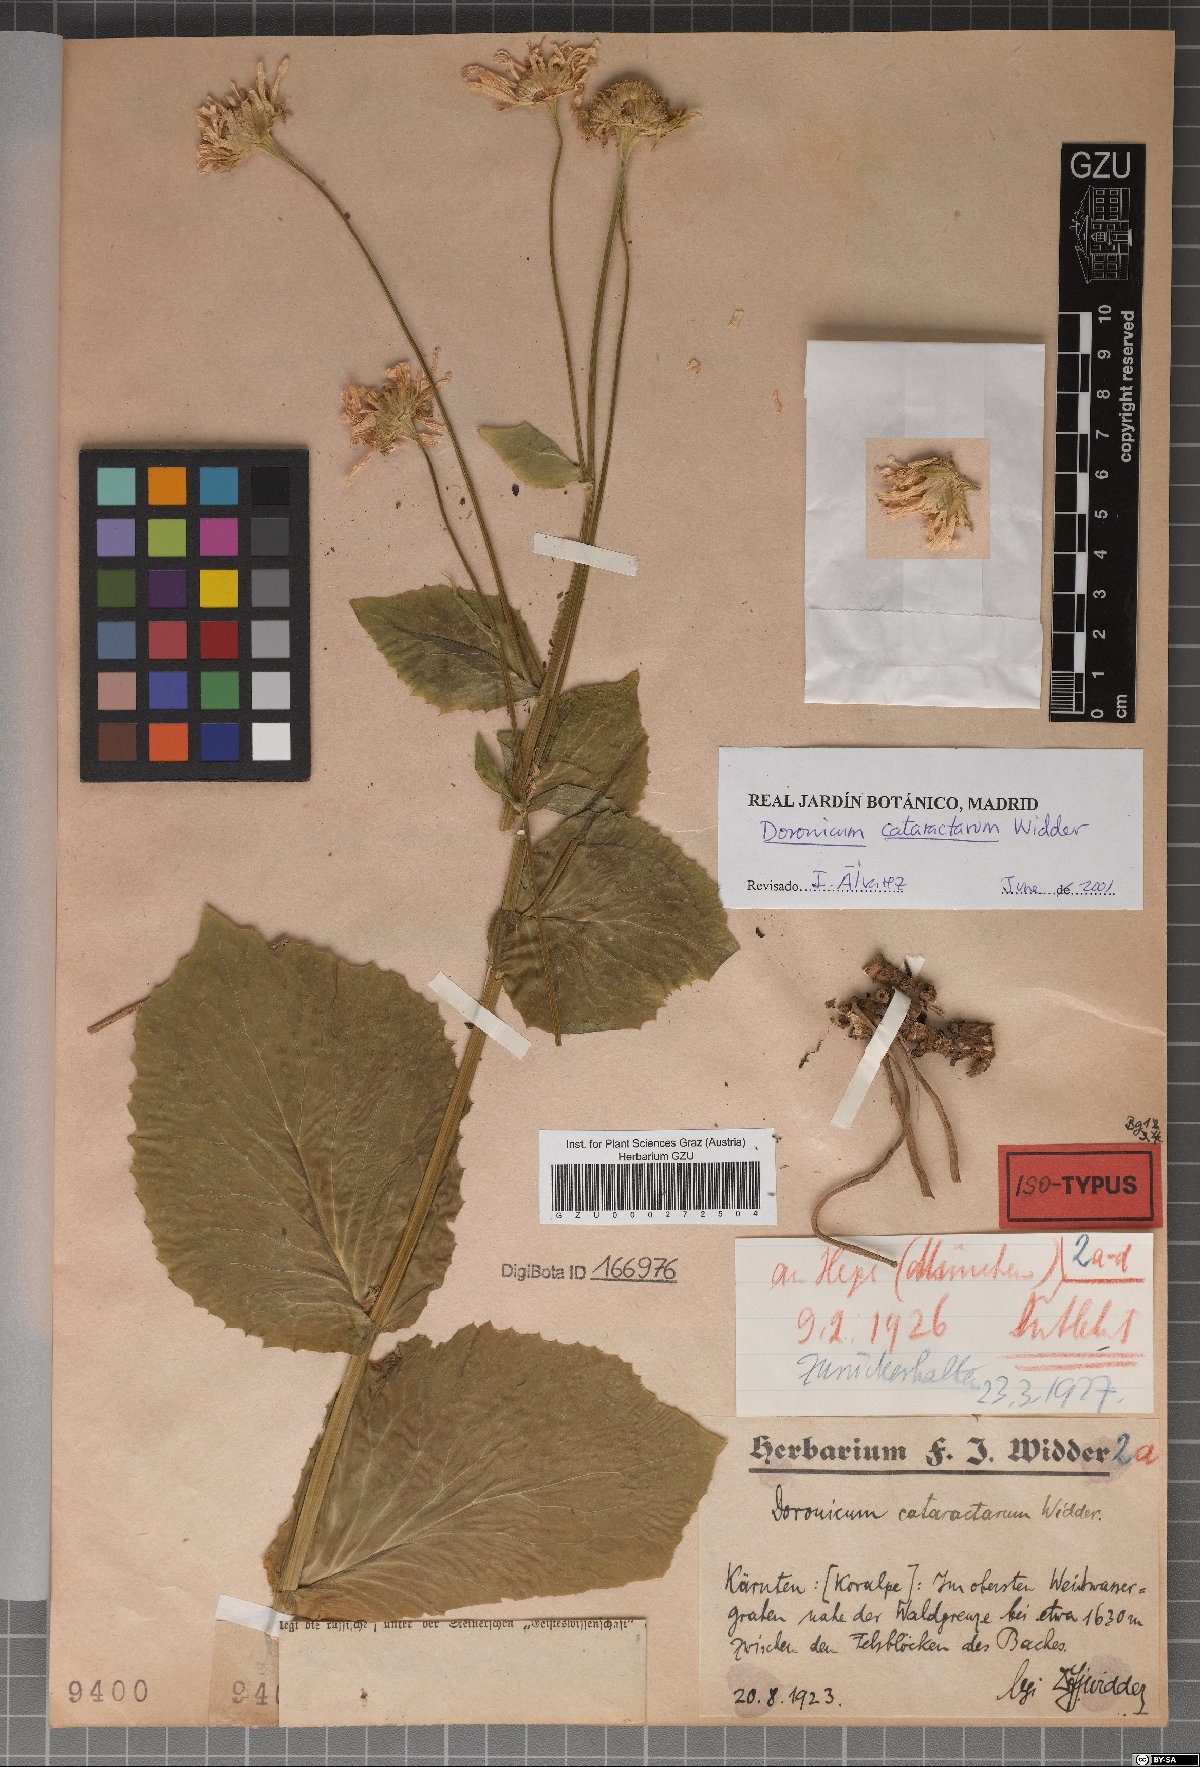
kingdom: Plantae
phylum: Tracheophyta
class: Magnoliopsida
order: Asterales
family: Asteraceae
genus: Doronicum
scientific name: Doronicum cataractarum
